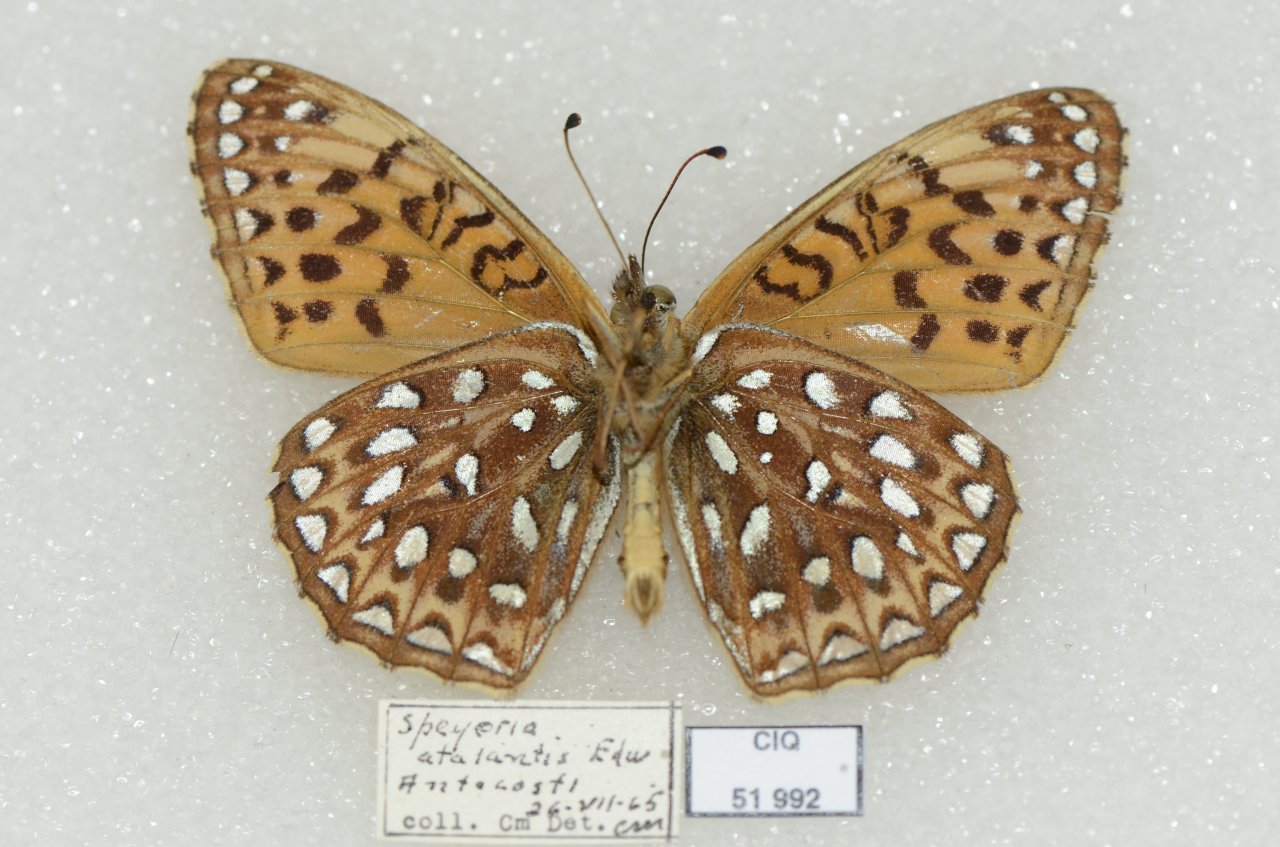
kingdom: Animalia
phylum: Arthropoda
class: Insecta
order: Lepidoptera
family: Nymphalidae
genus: Speyeria
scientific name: Speyeria atlantis
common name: Atlantis Fritillary
